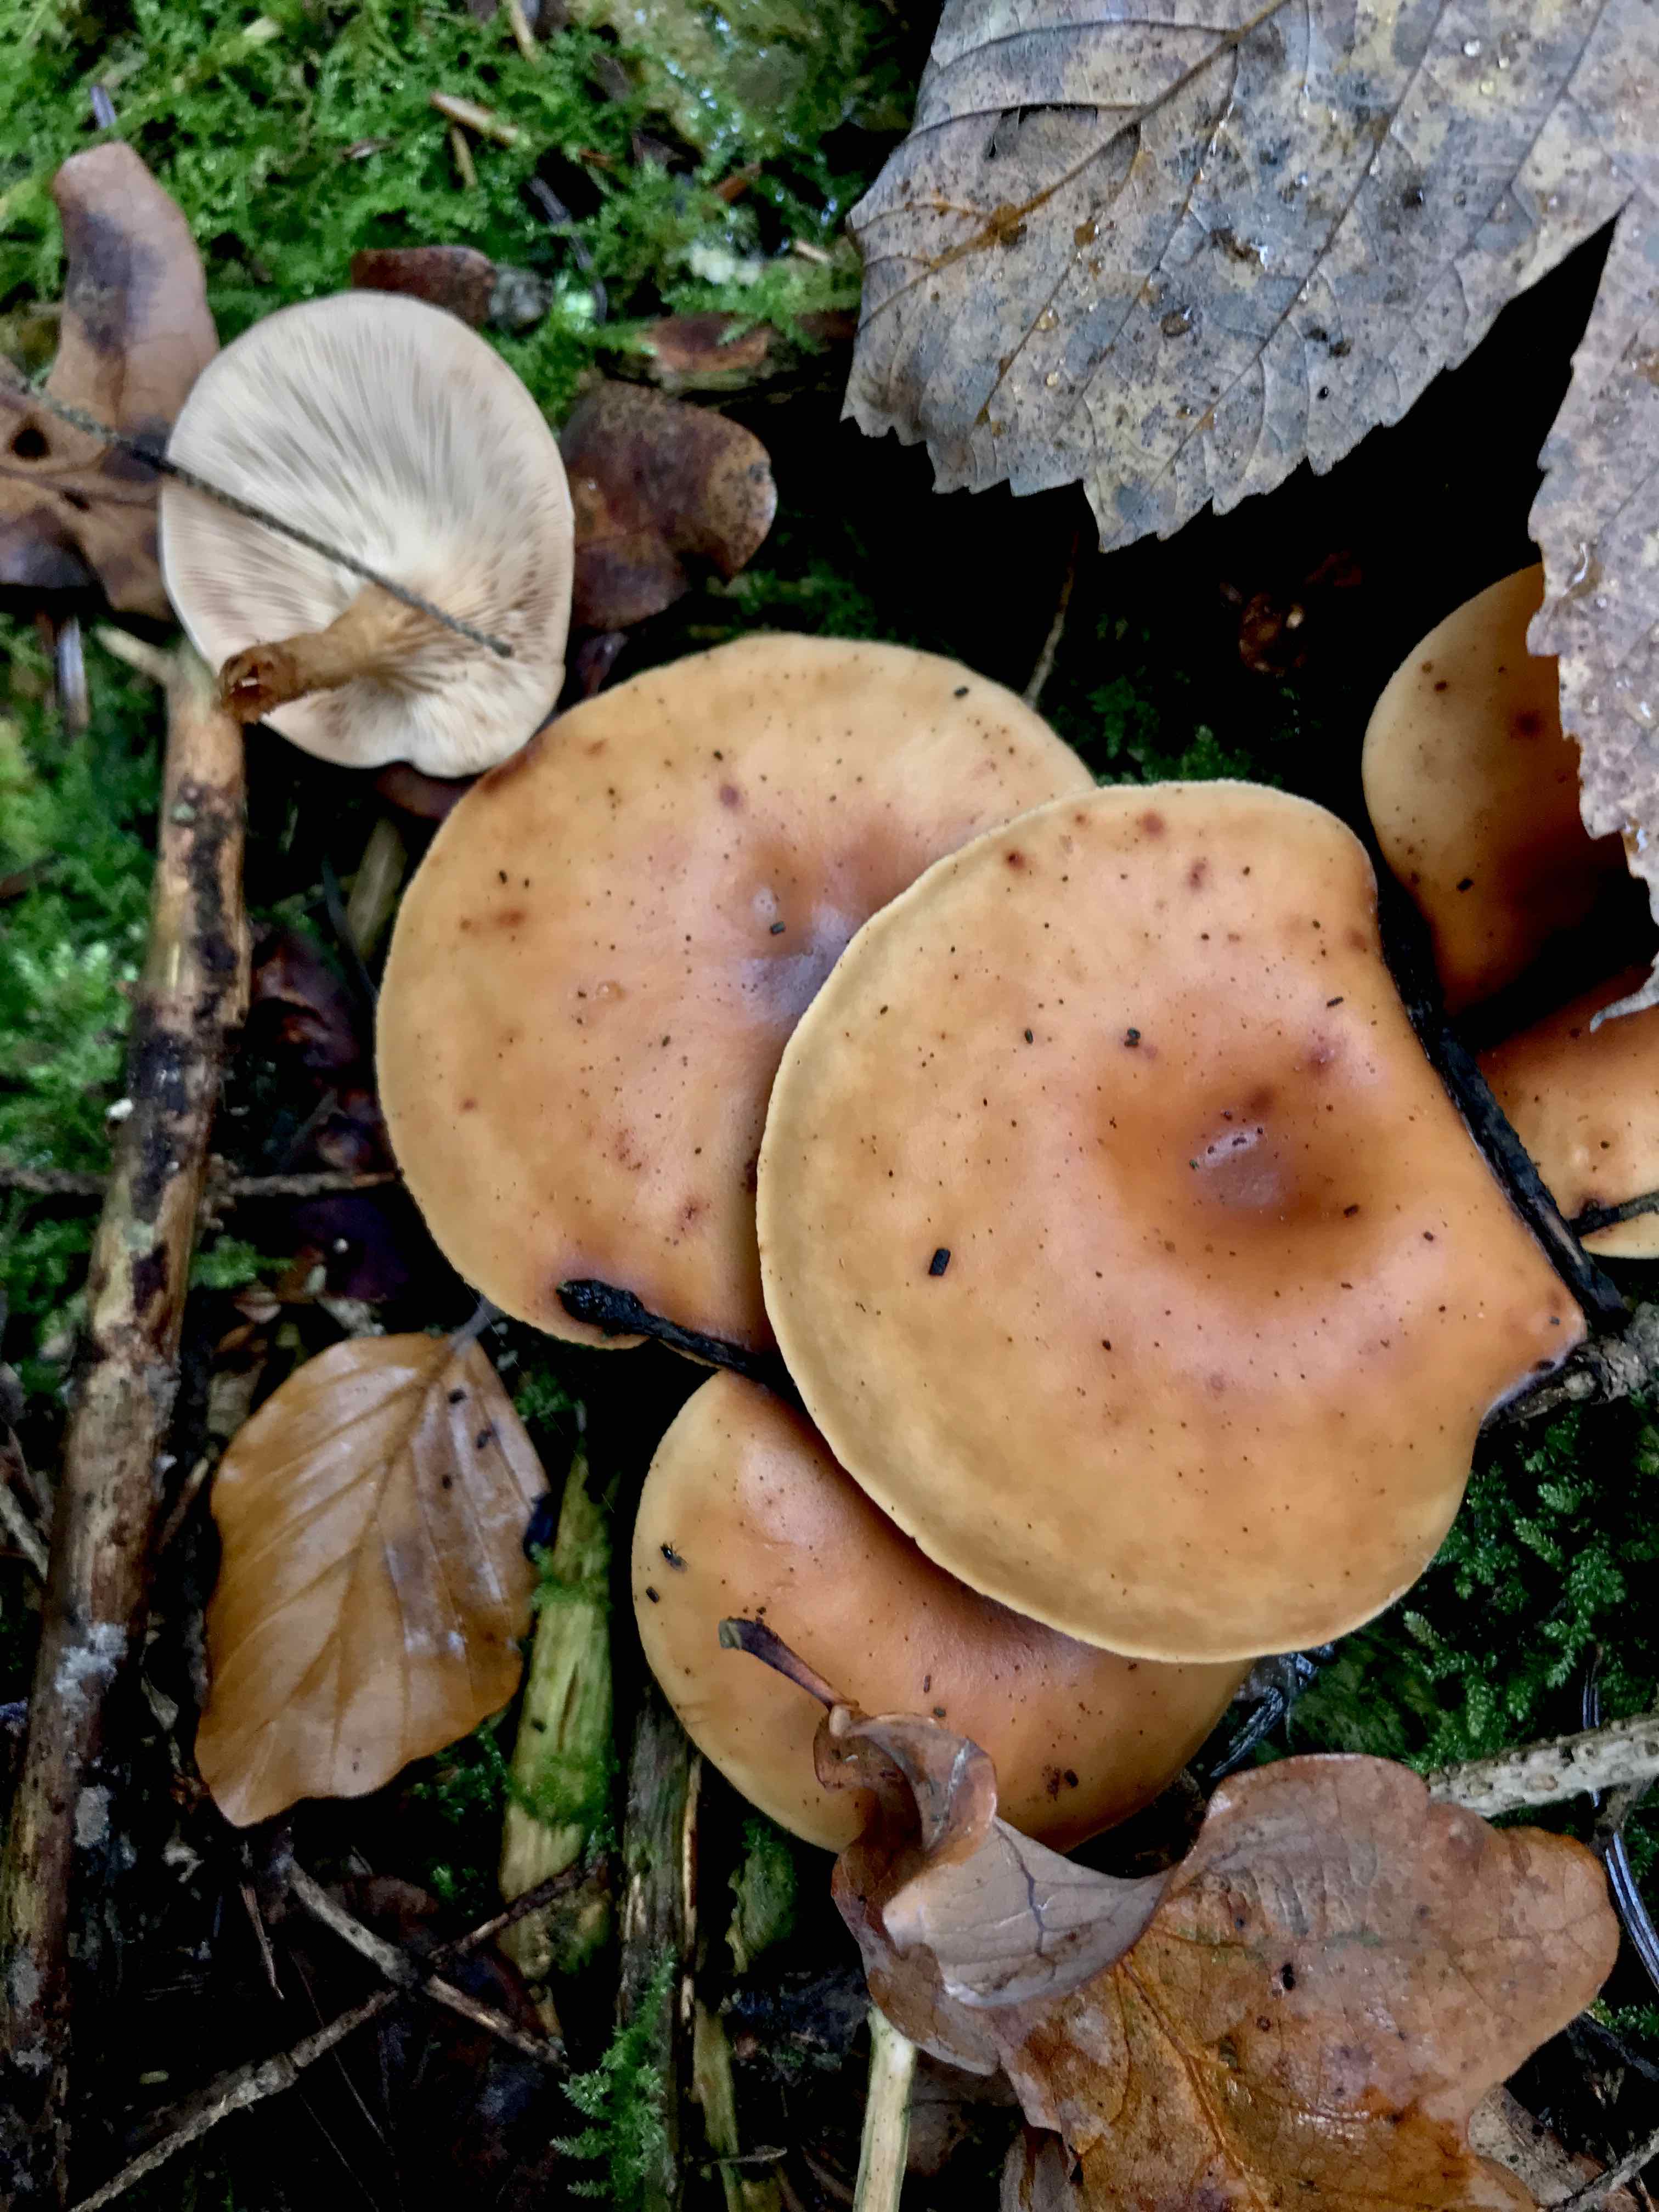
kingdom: Fungi
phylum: Basidiomycota
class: Agaricomycetes
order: Agaricales
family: Tricholomataceae
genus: Paralepista
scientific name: Paralepista flaccida
